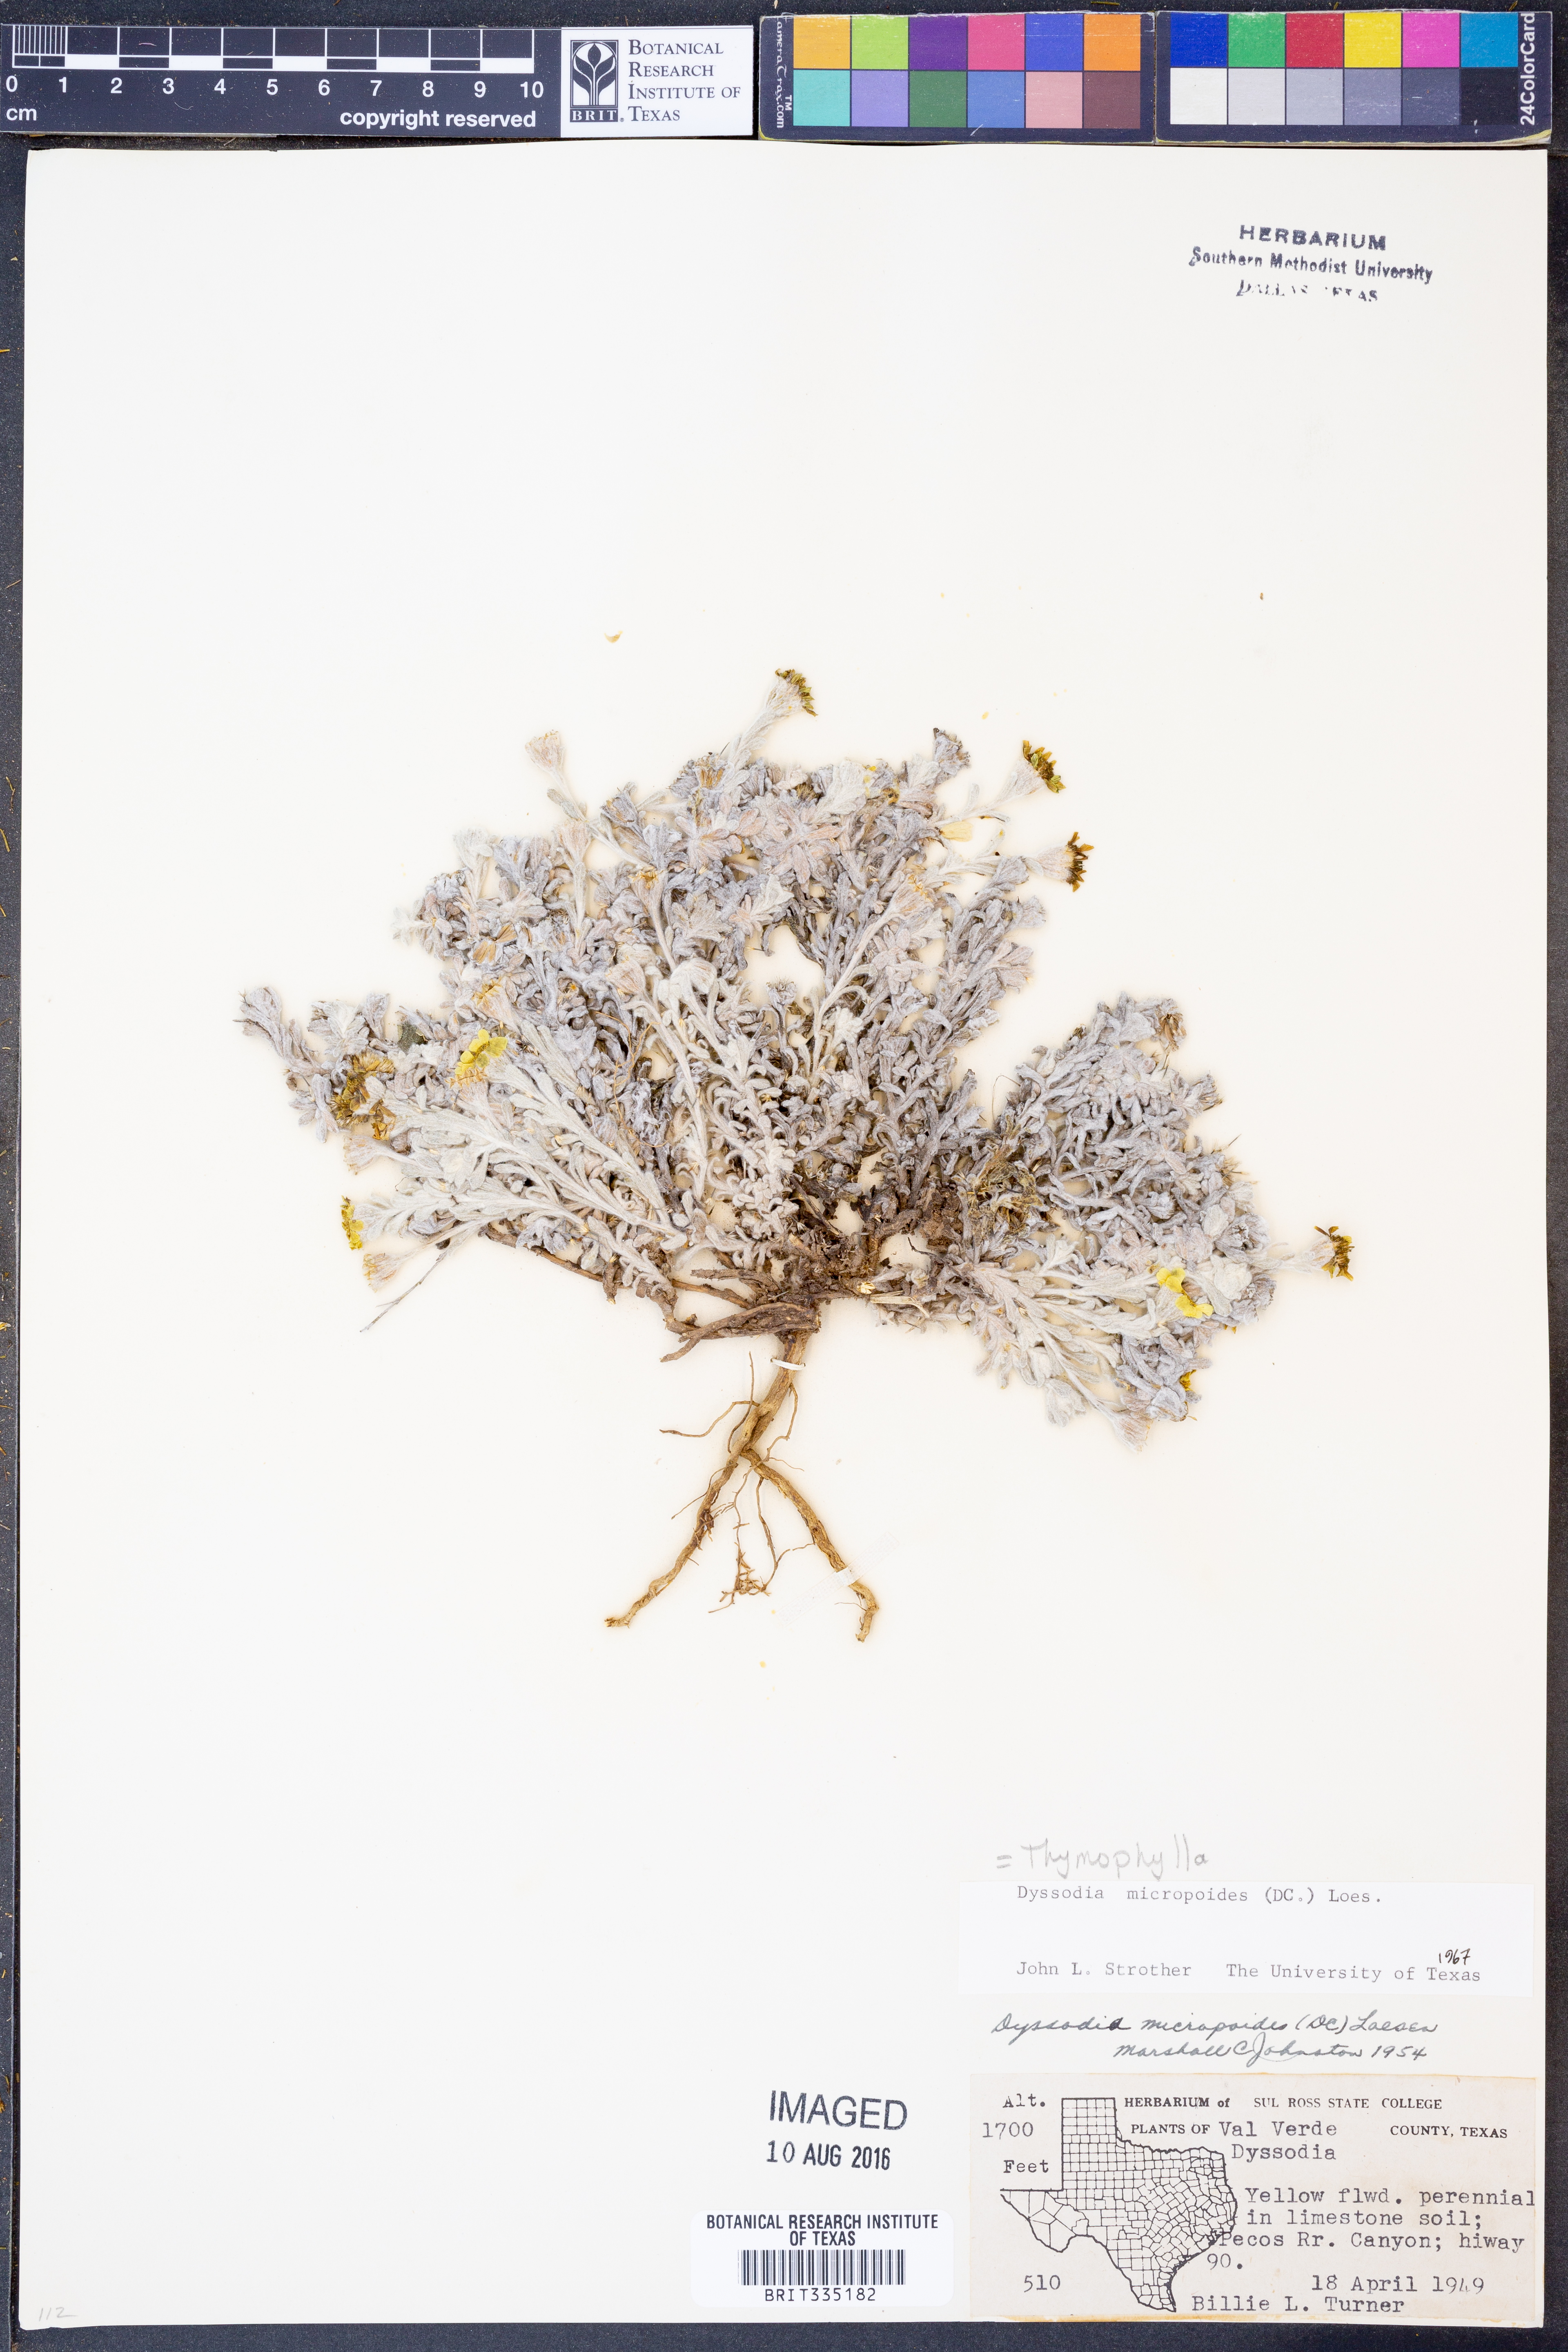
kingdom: Plantae
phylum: Tracheophyta
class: Magnoliopsida
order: Asterales
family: Asteraceae
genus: Thymophylla
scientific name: Thymophylla micropoides
